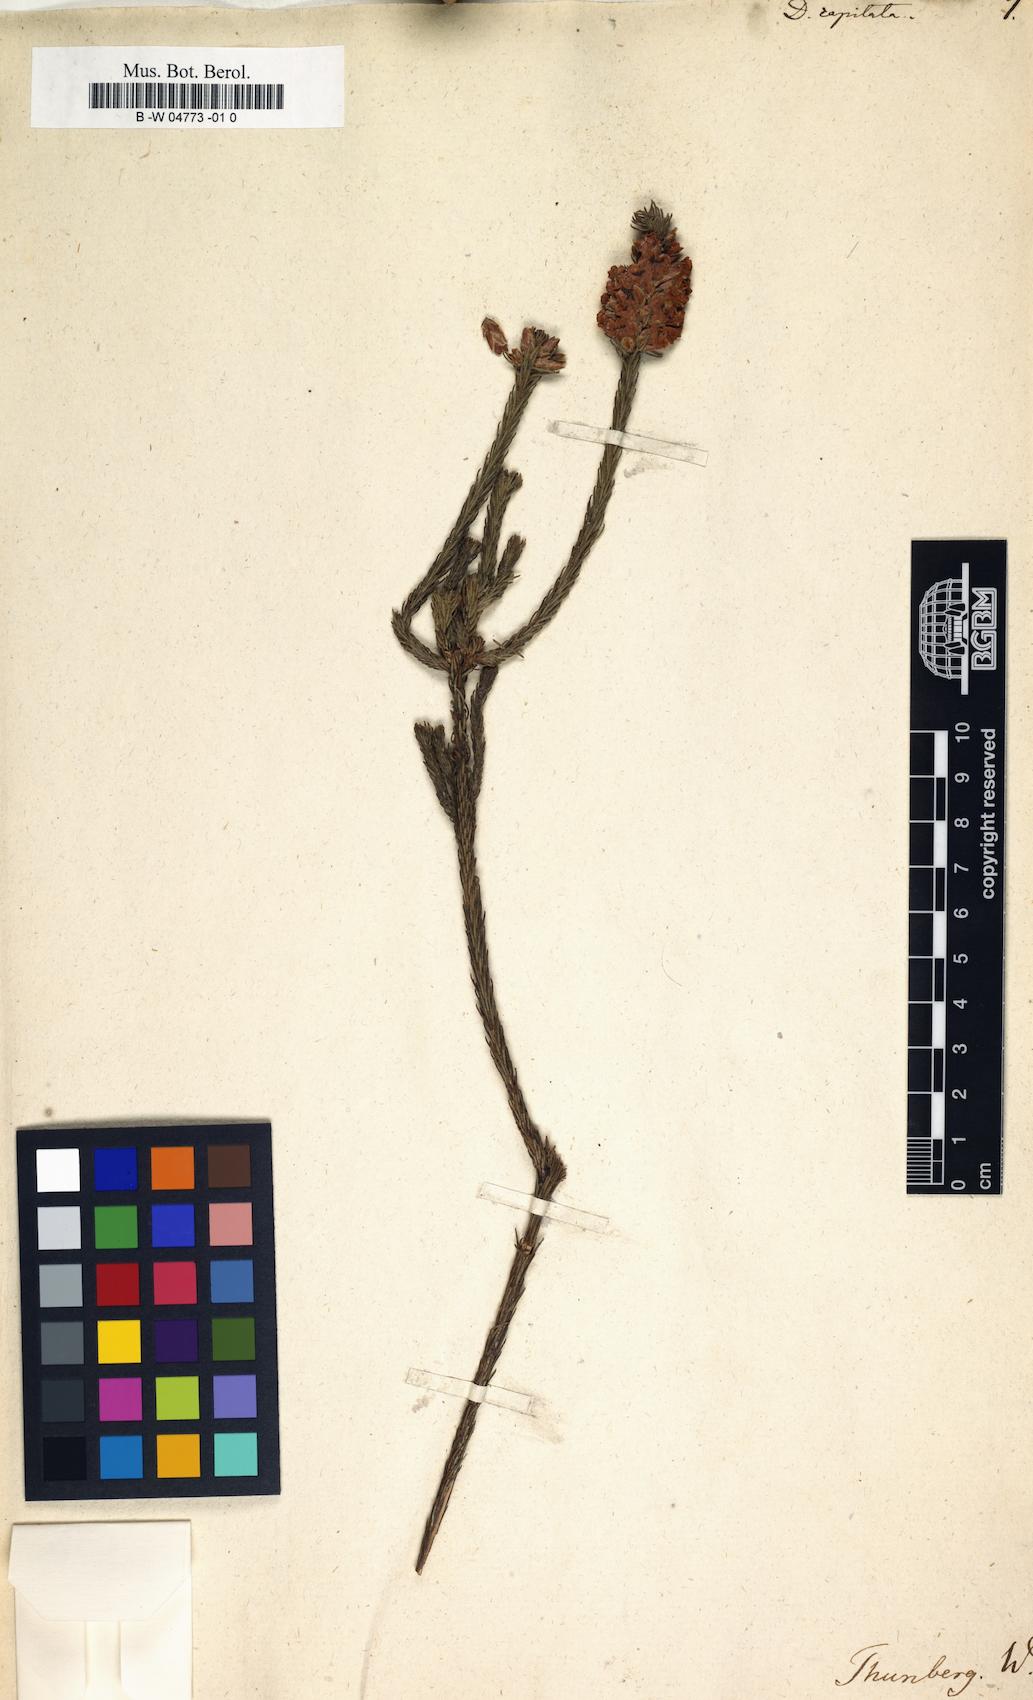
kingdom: Plantae
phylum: Tracheophyta
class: Magnoliopsida
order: Bruniales
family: Bruniaceae
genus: Audouinia
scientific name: Audouinia capitata
